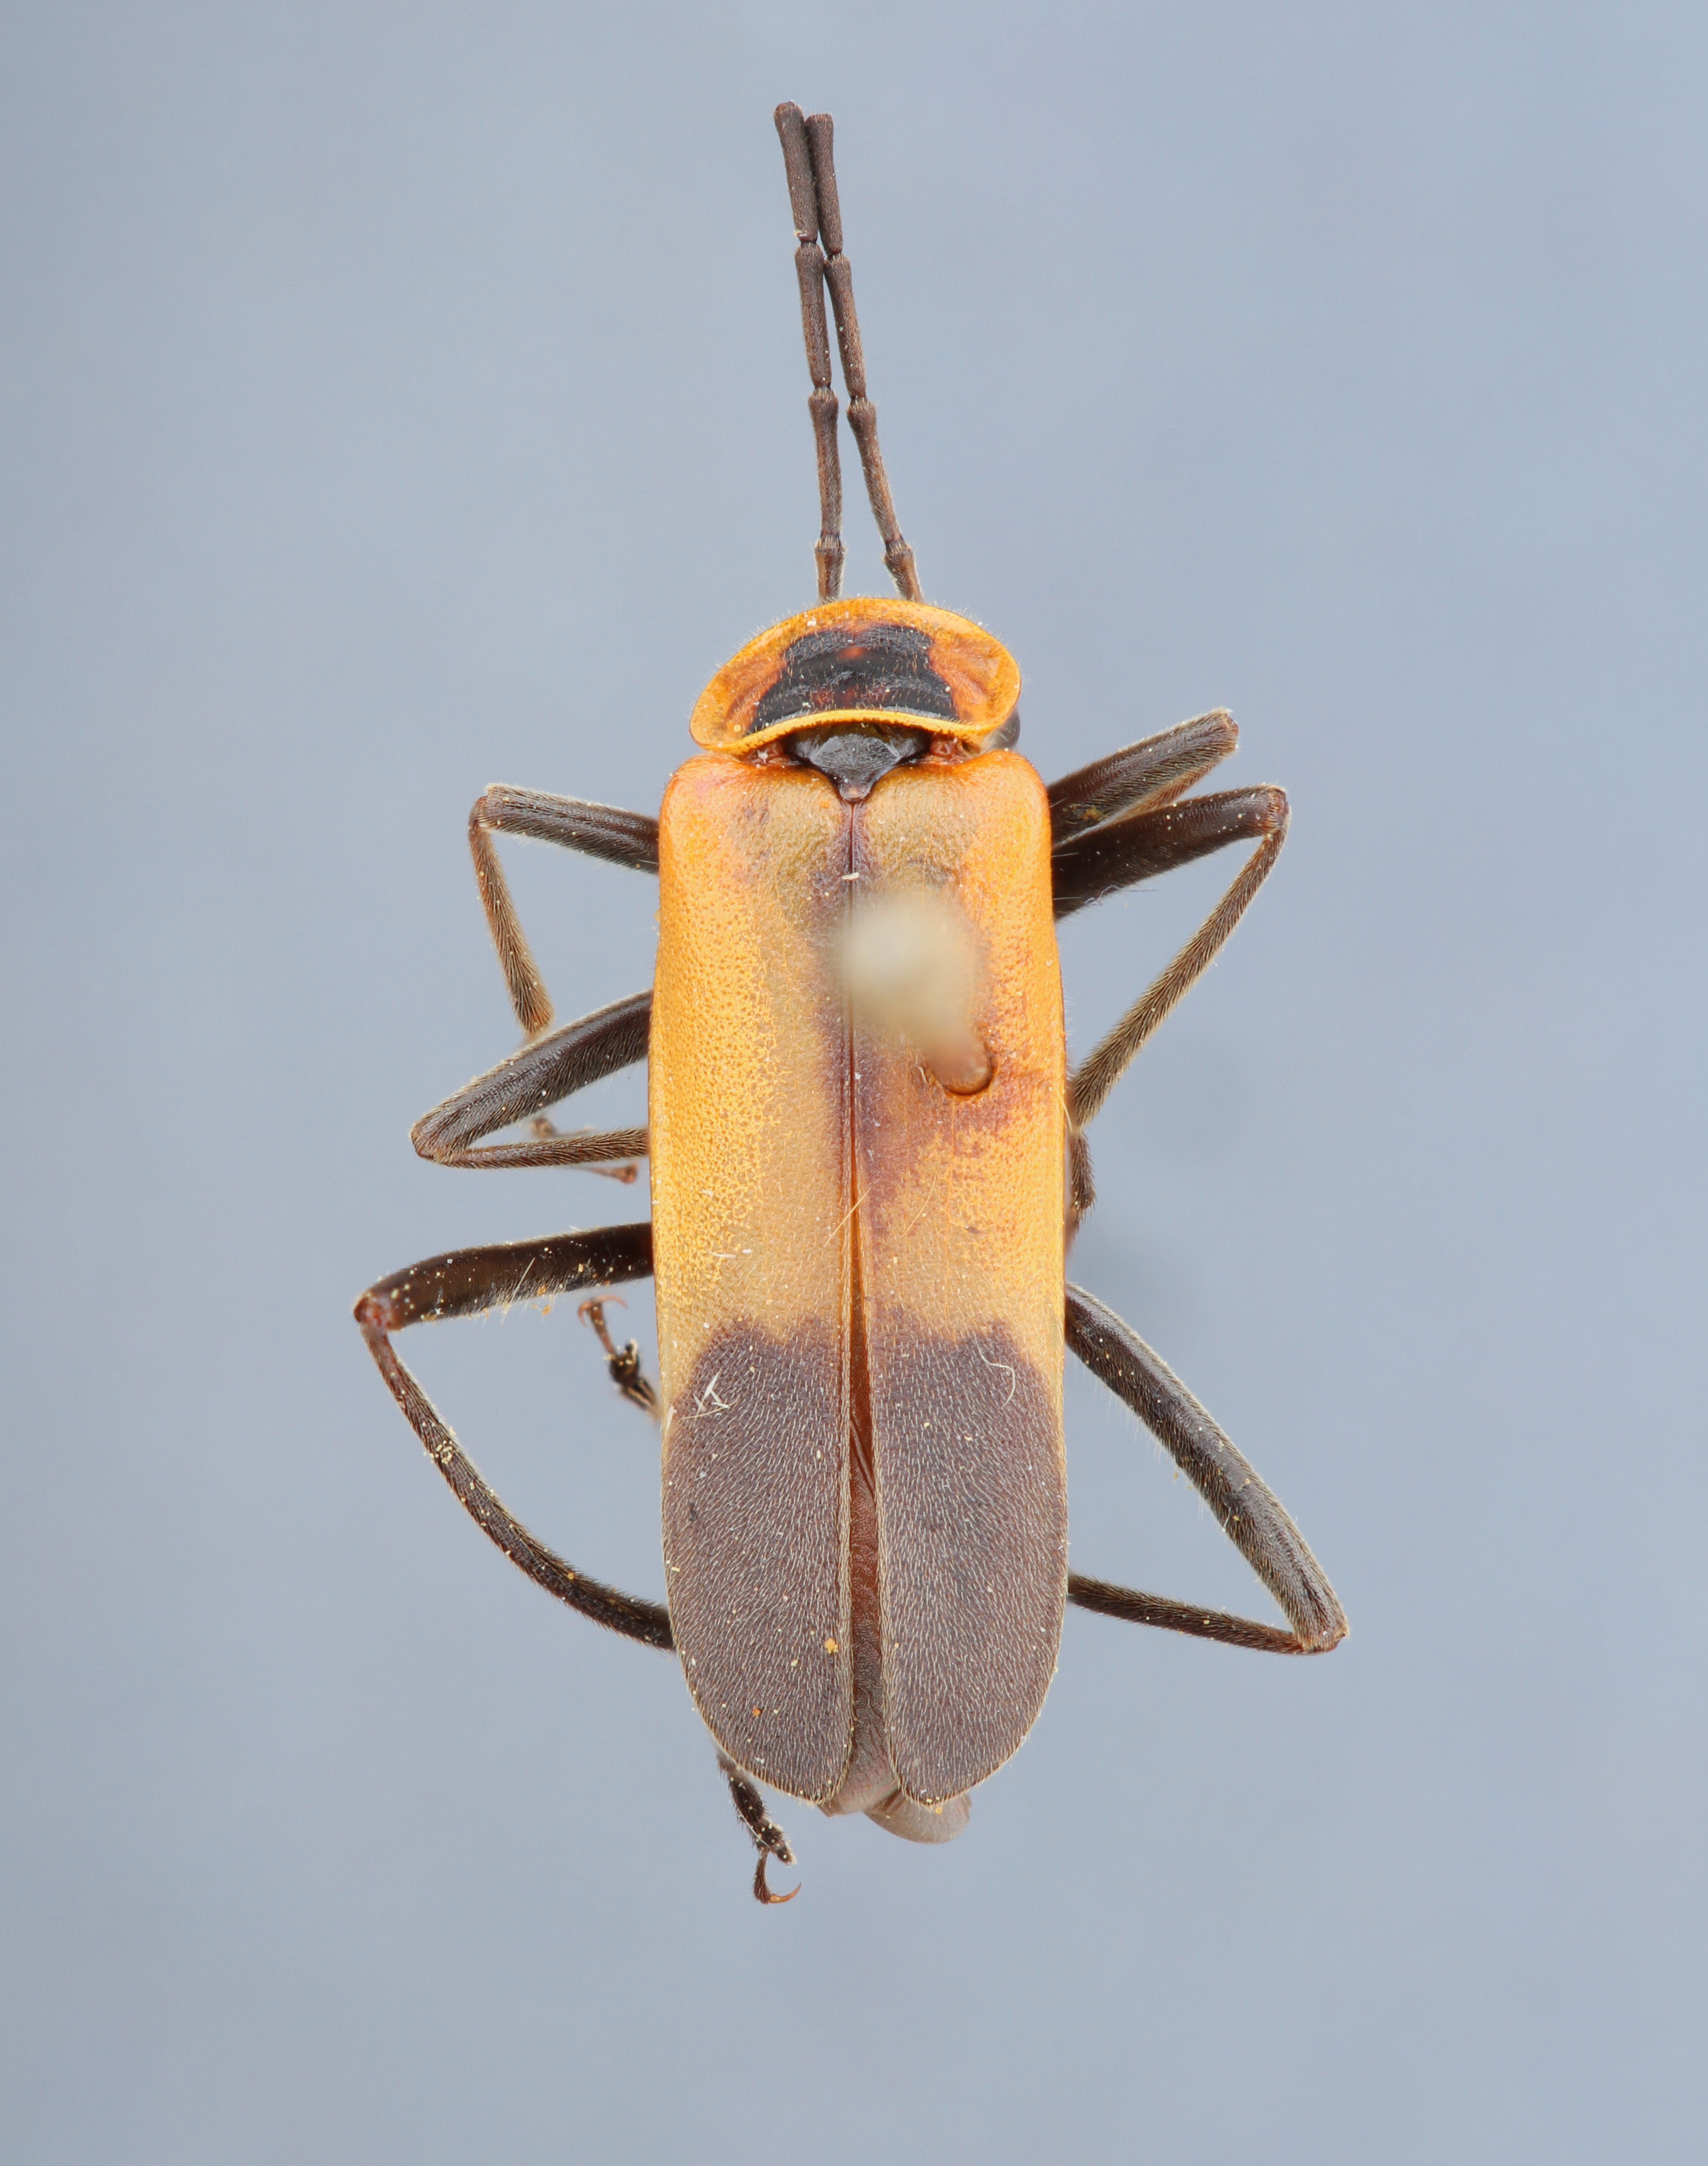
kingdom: Animalia
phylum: Arthropoda
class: Insecta
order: Coleoptera
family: Cantharidae
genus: Chauliognathus
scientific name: Chauliognathus limbicollis
